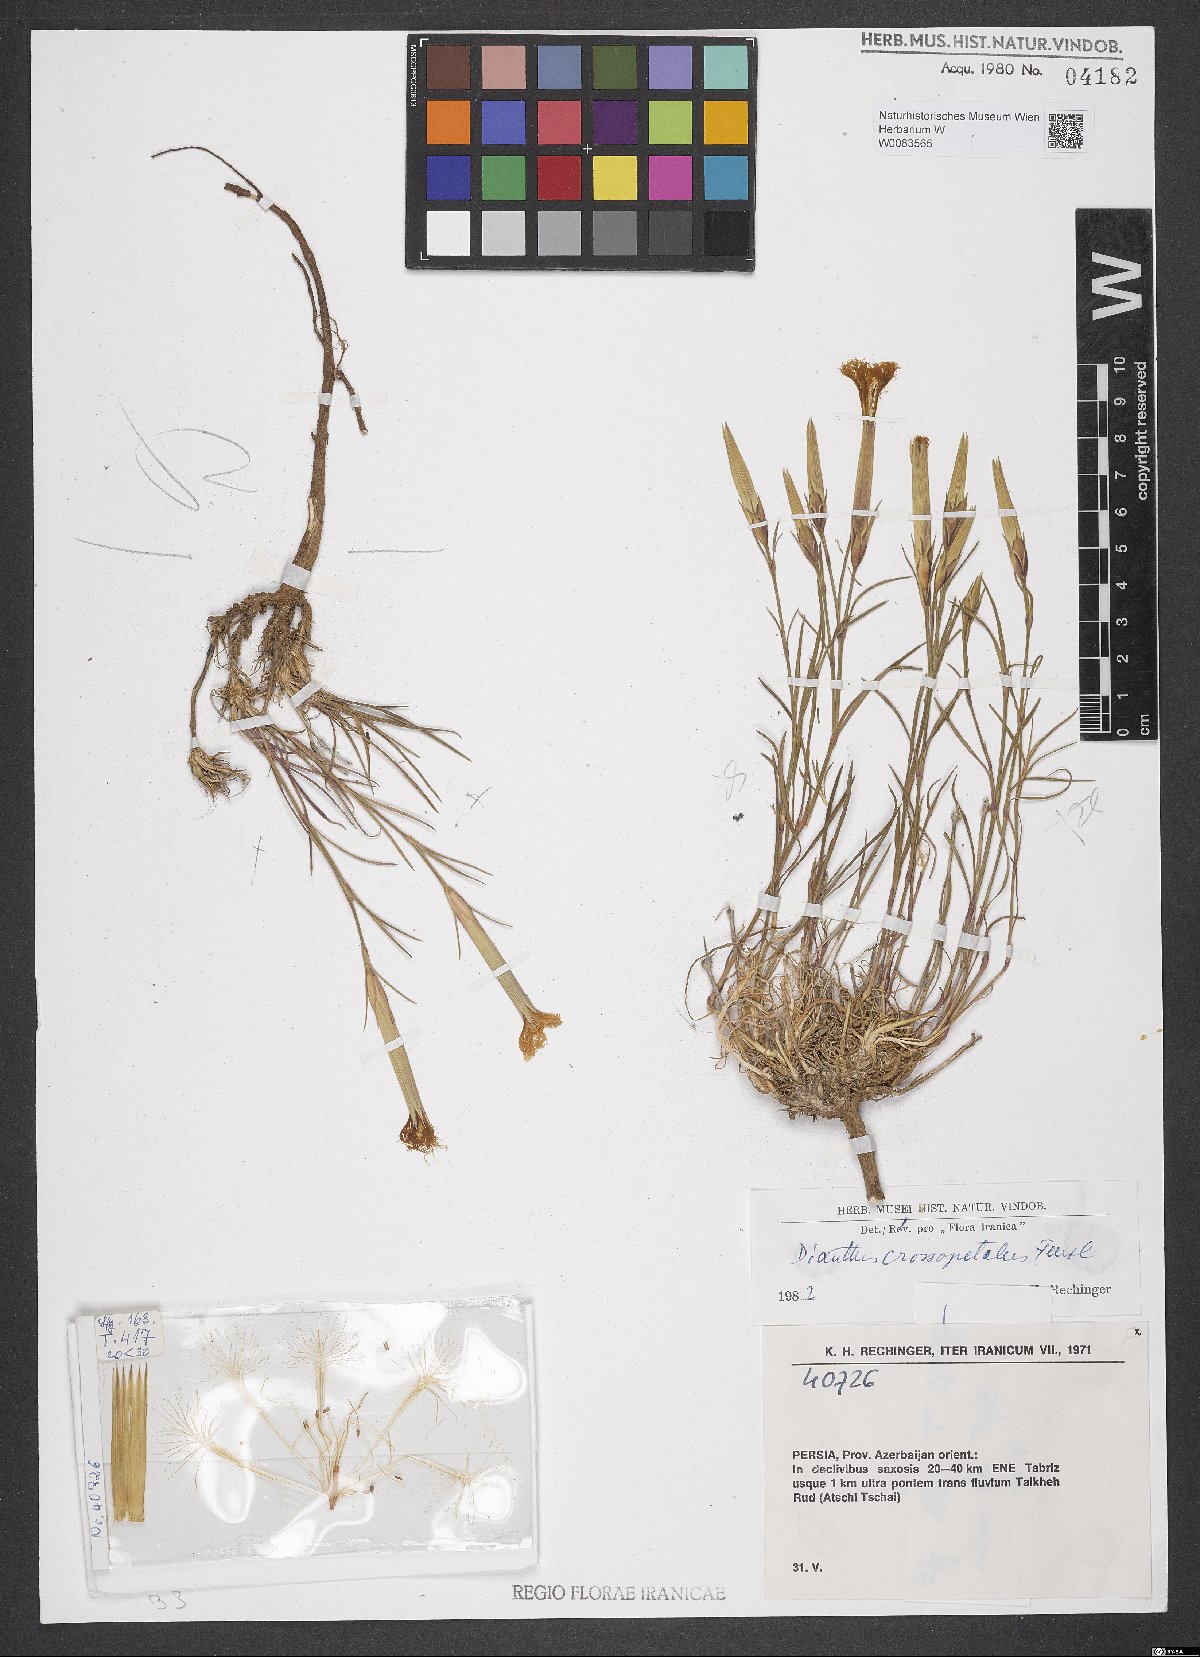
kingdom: Plantae
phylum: Tracheophyta
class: Magnoliopsida
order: Caryophyllales
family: Caryophyllaceae
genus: Dianthus
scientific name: Dianthus crossopetalus
